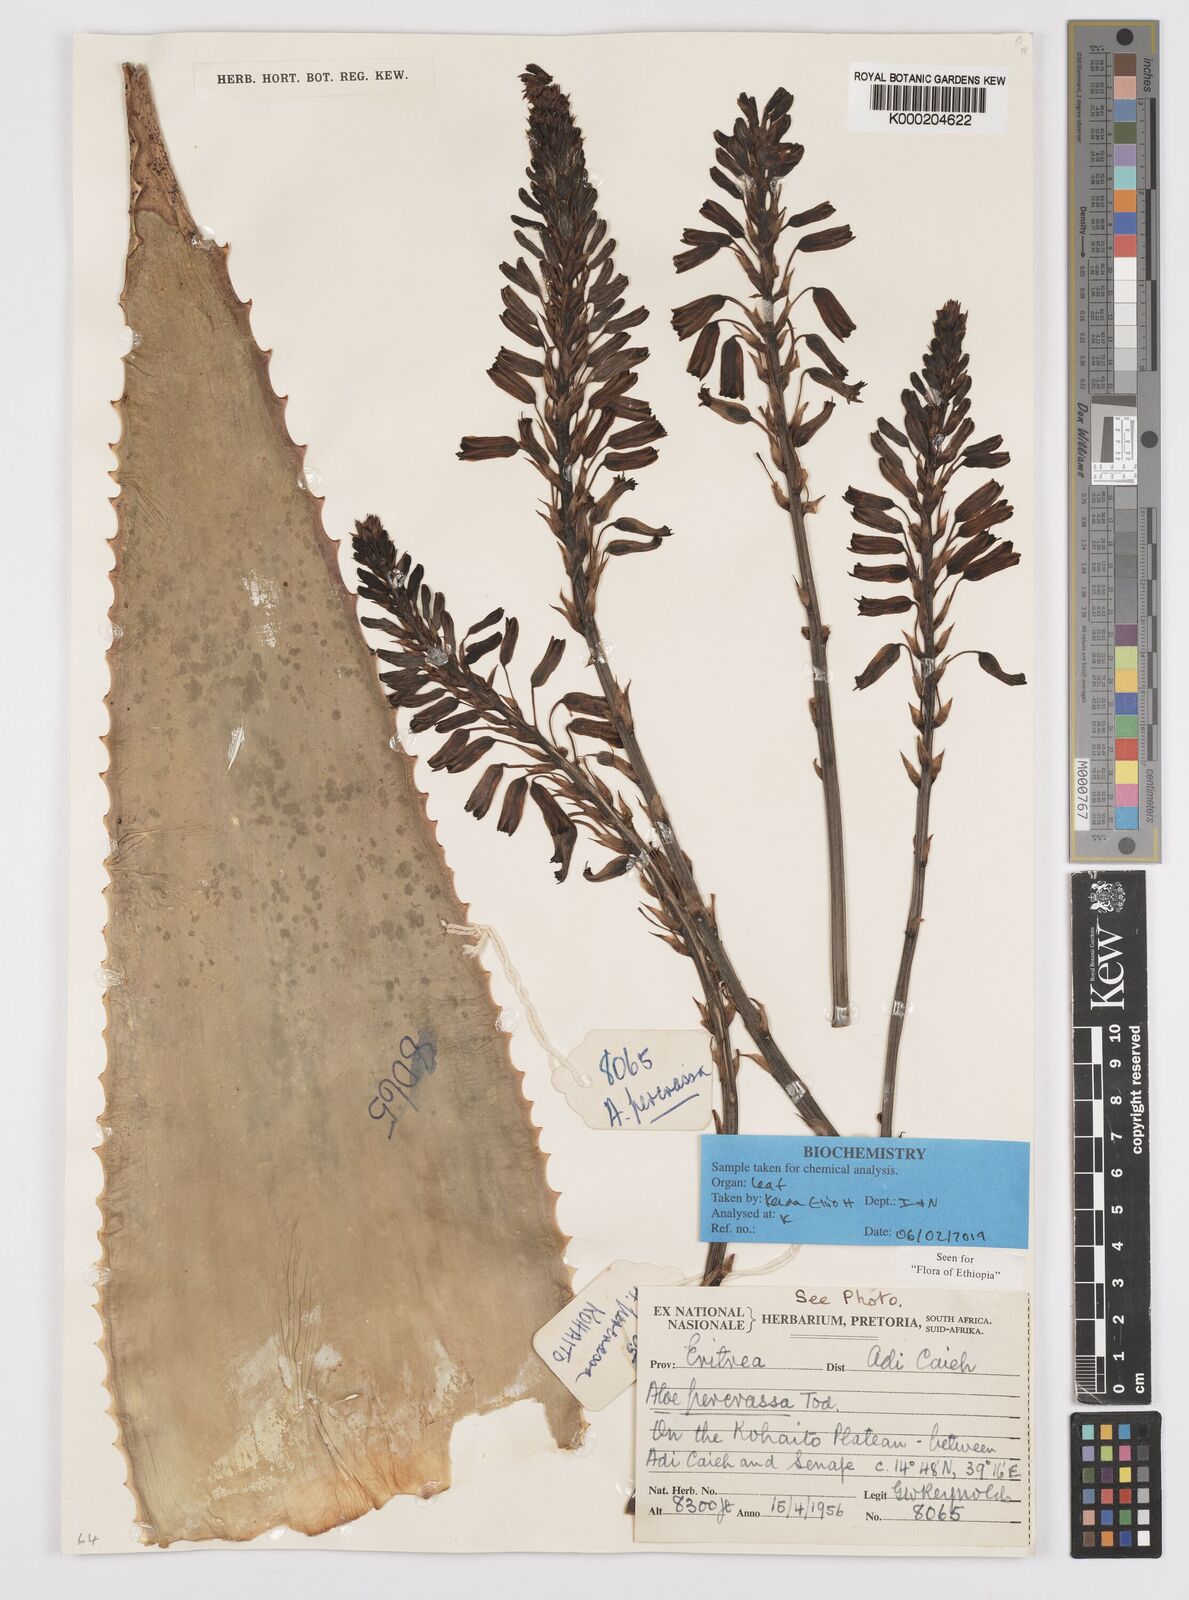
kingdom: Plantae
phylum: Tracheophyta
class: Liliopsida
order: Asparagales
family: Asphodelaceae
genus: Aloe
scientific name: Aloe percrassa
